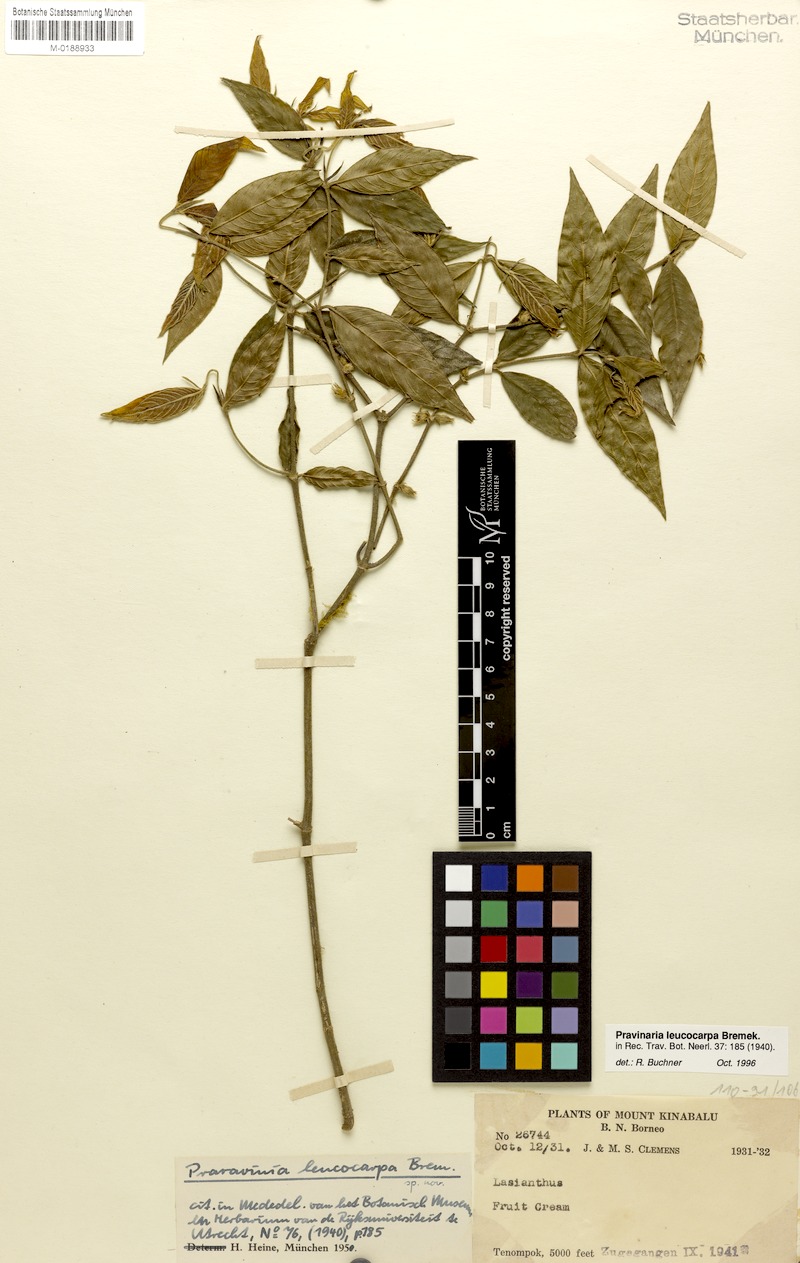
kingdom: Plantae
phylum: Tracheophyta
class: Magnoliopsida
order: Gentianales
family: Rubiaceae
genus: Urophyllum
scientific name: Urophyllum leucocarpum
